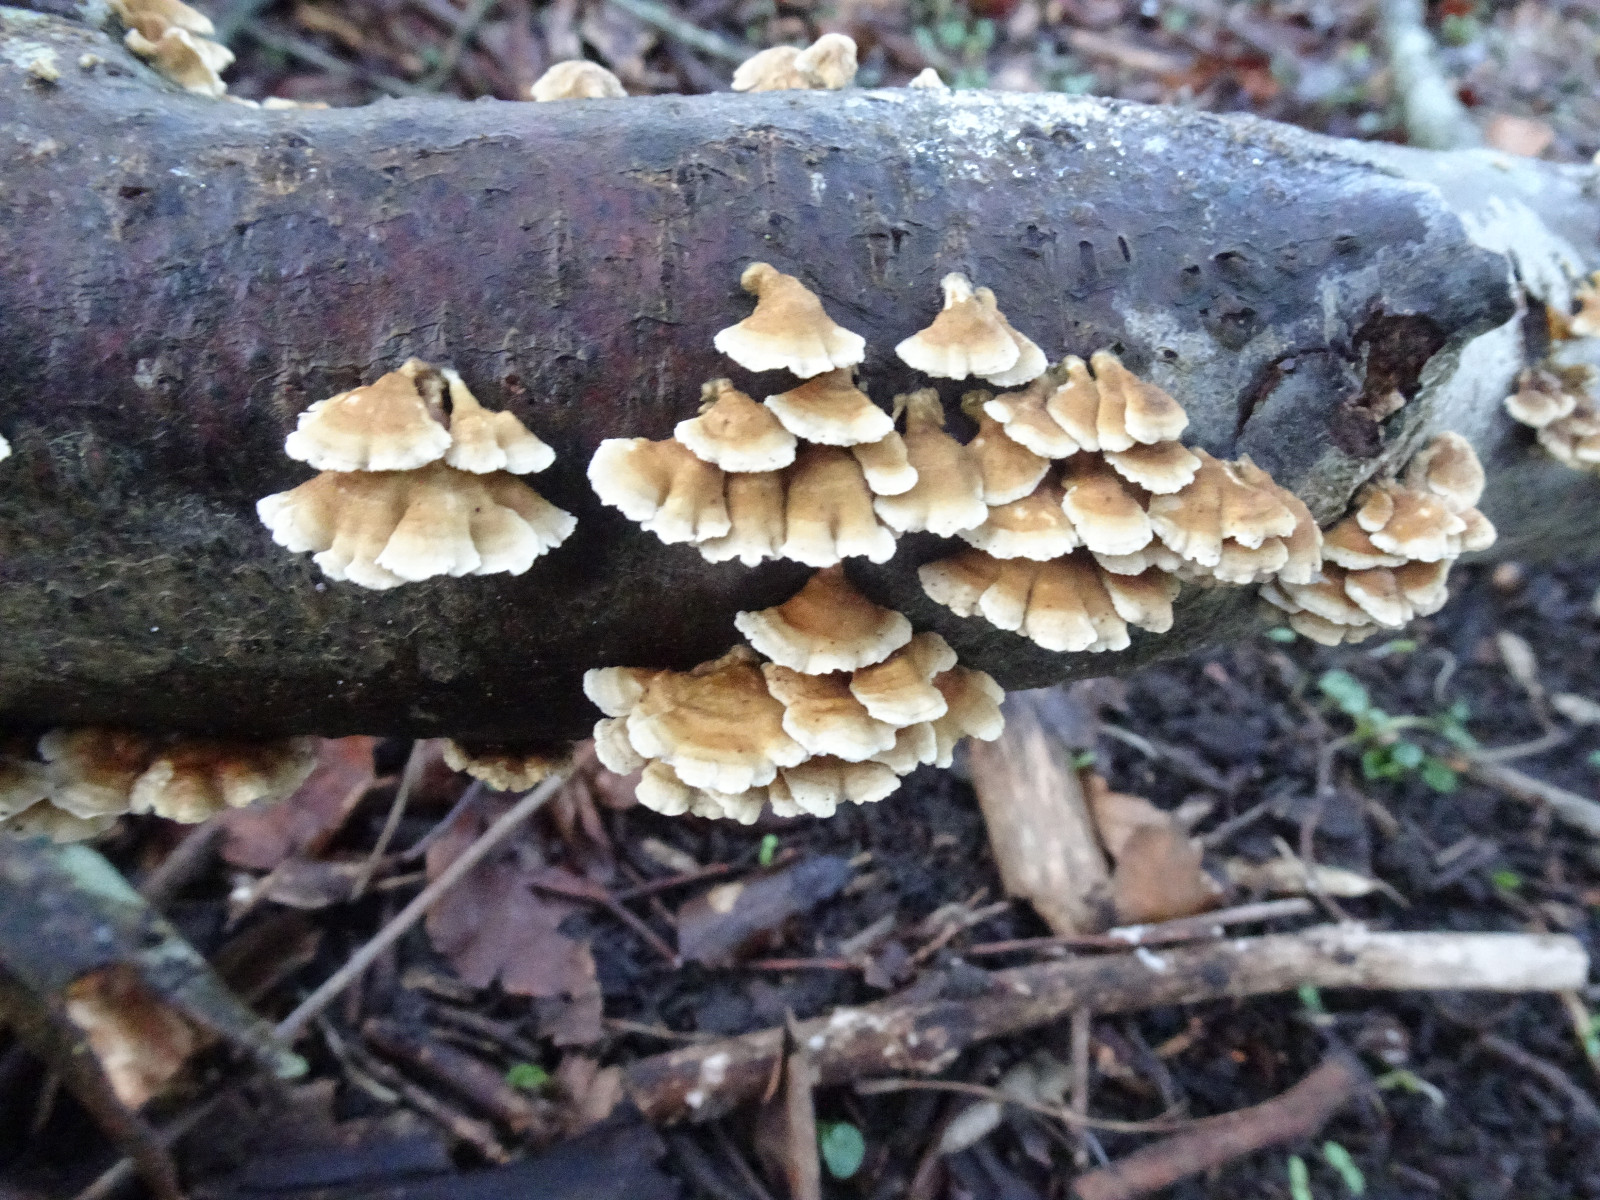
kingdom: Fungi
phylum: Basidiomycota
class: Agaricomycetes
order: Amylocorticiales
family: Amylocorticiaceae
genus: Plicaturopsis
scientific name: Plicaturopsis crispa
